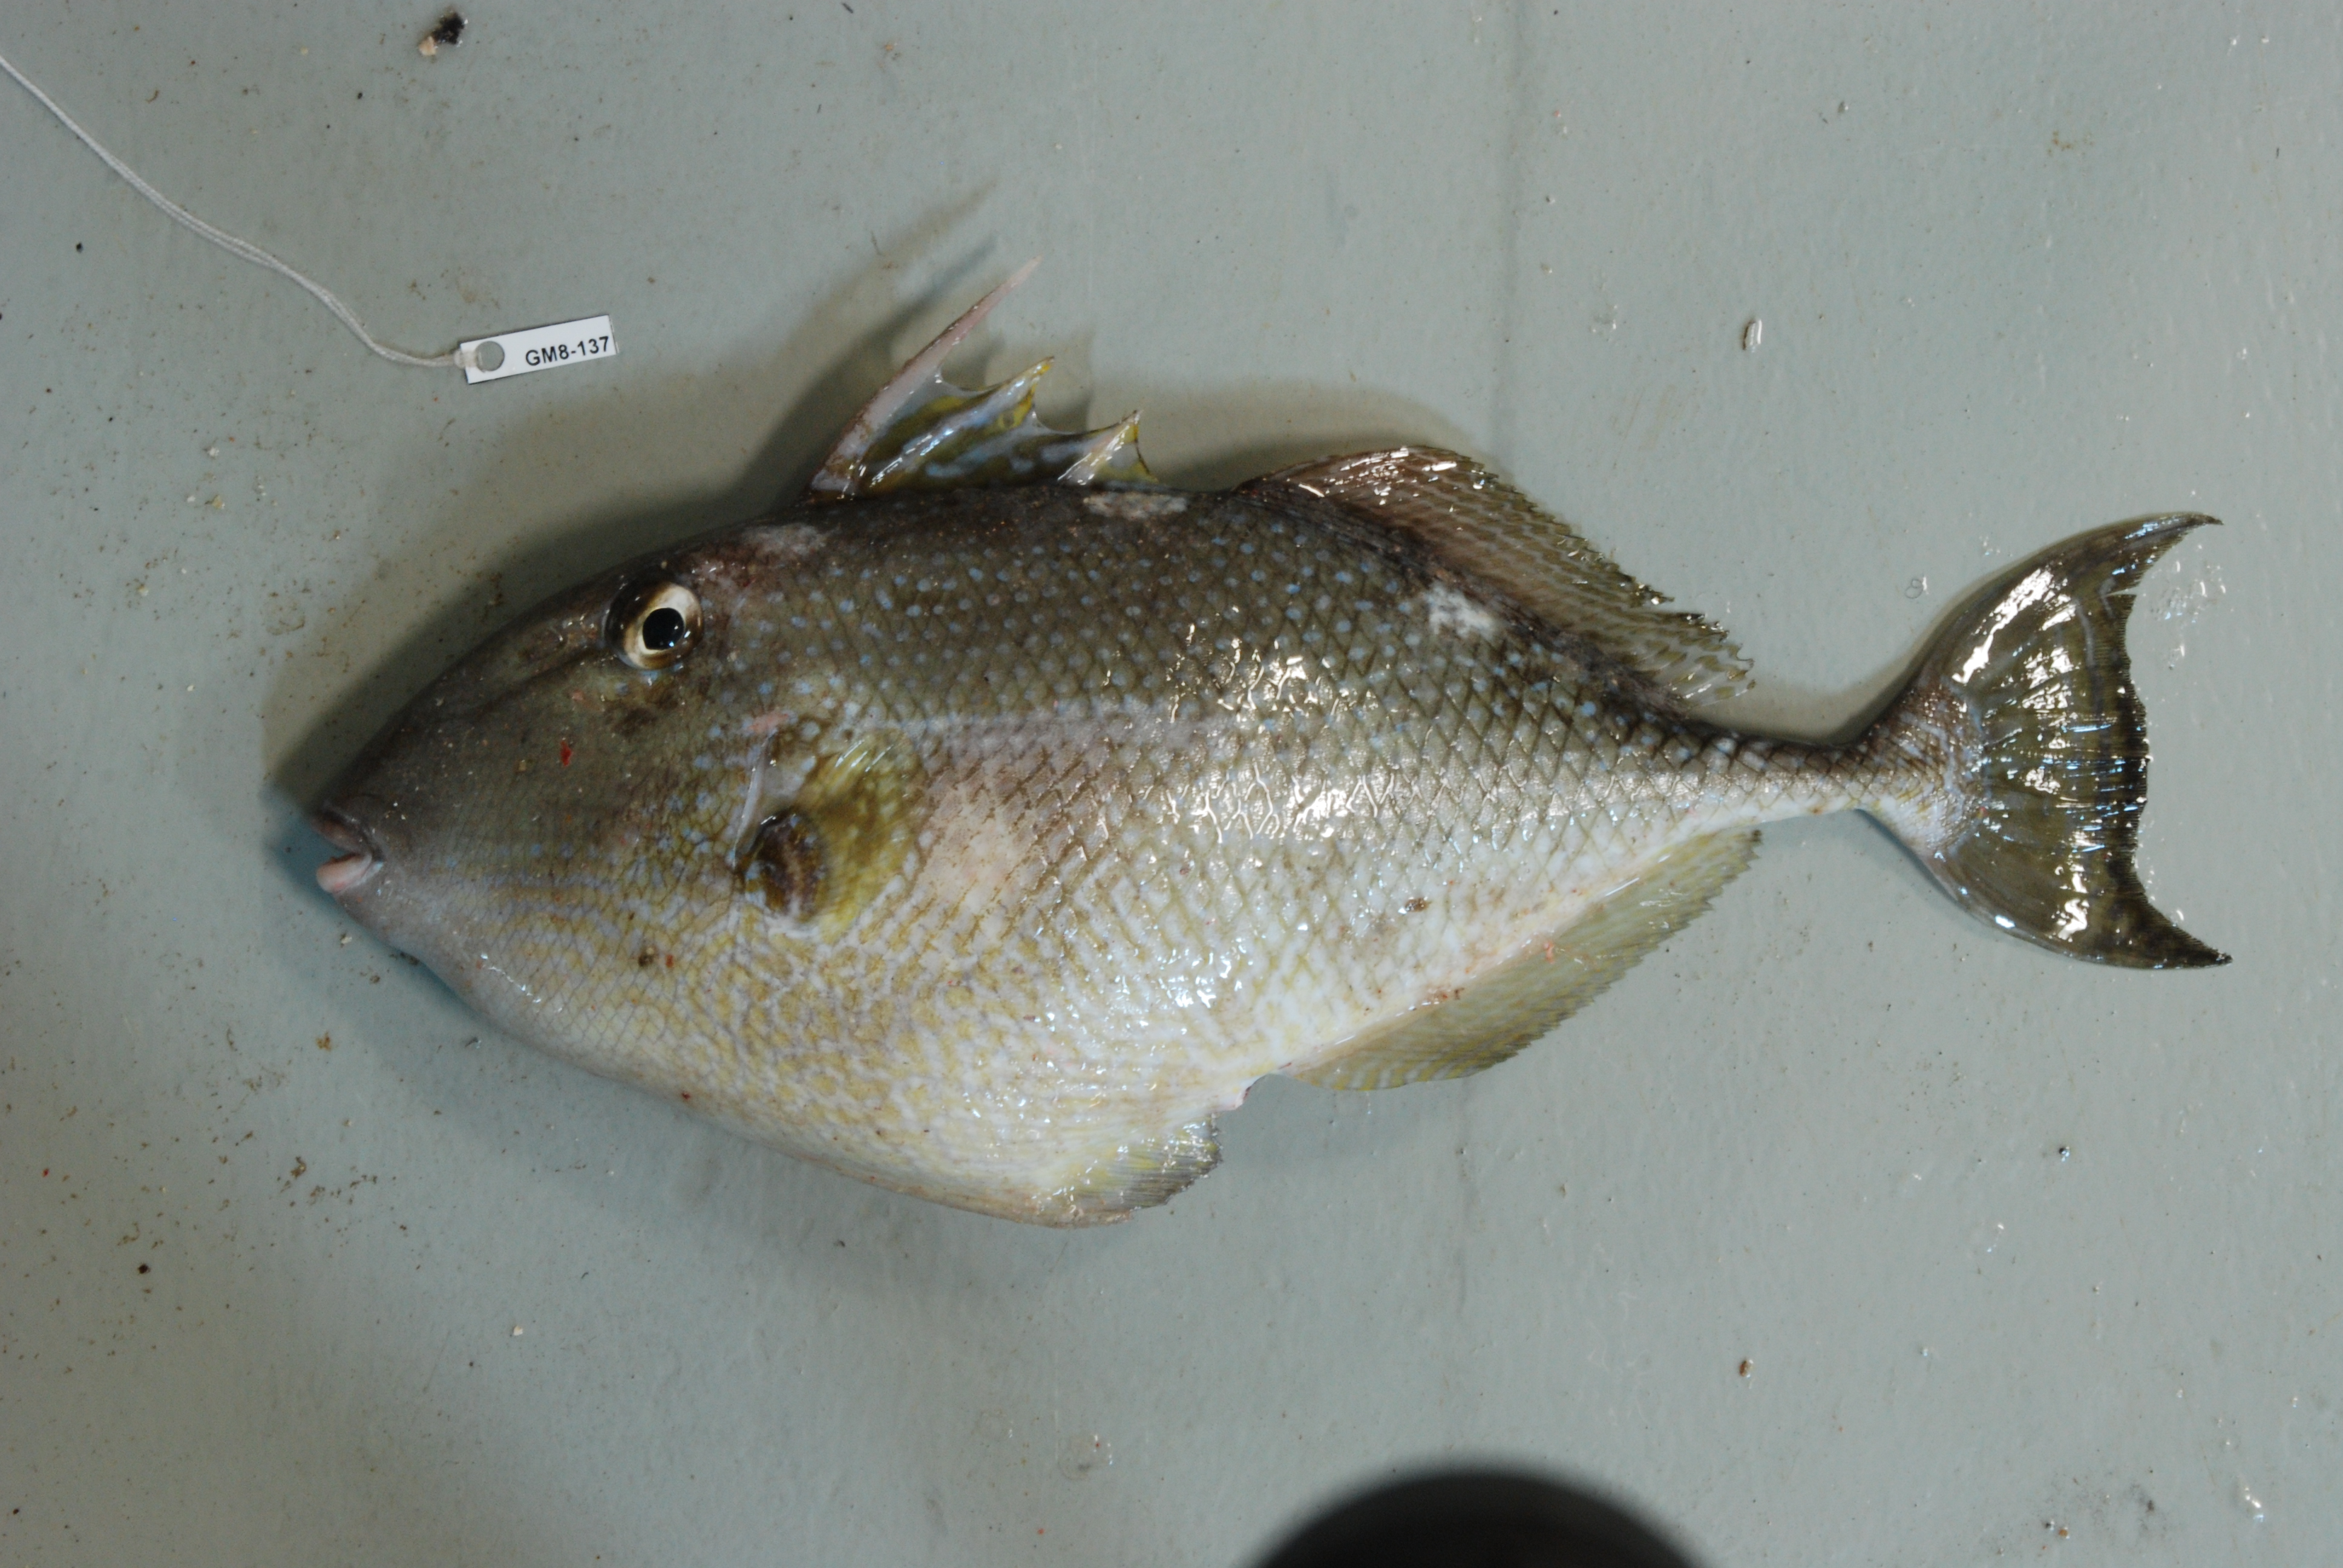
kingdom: Animalia
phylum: Chordata
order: Tetraodontiformes
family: Balistidae
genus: Abalistes
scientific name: Abalistes stellatus
